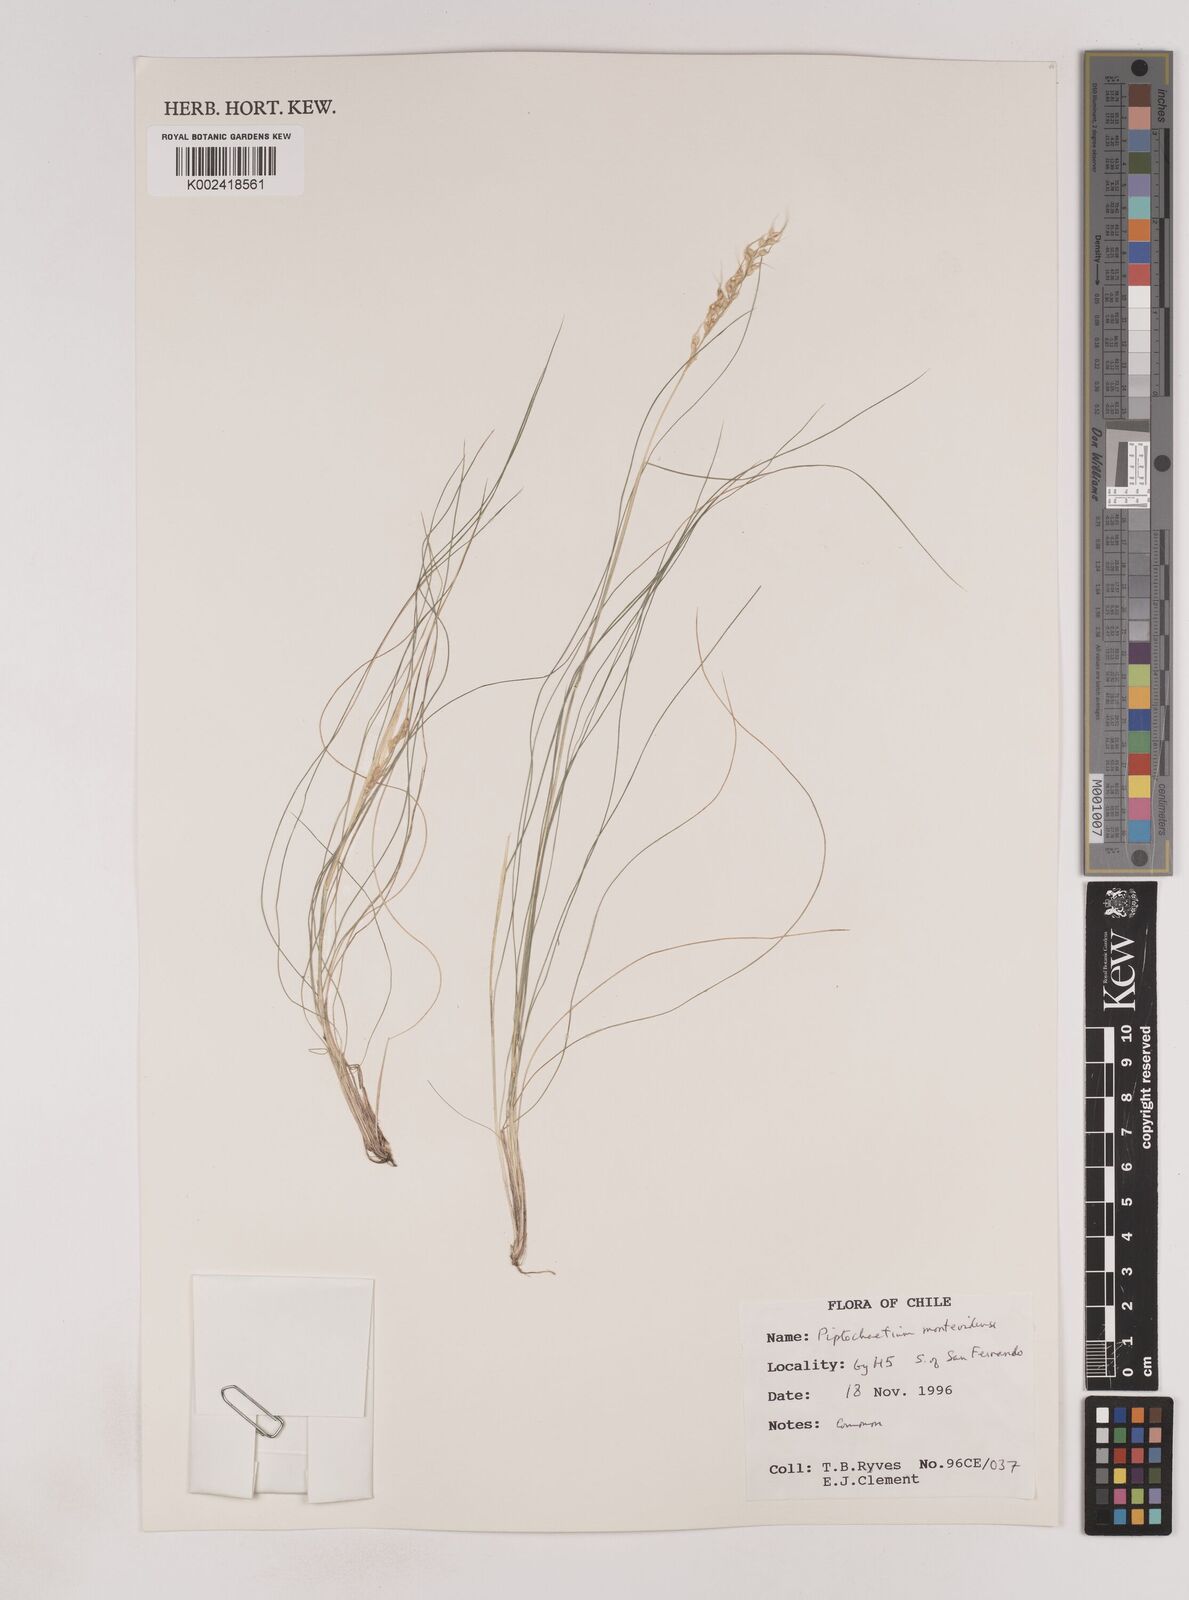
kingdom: Plantae
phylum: Tracheophyta
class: Liliopsida
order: Poales
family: Poaceae
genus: Piptochaetium
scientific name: Piptochaetium montevidense
